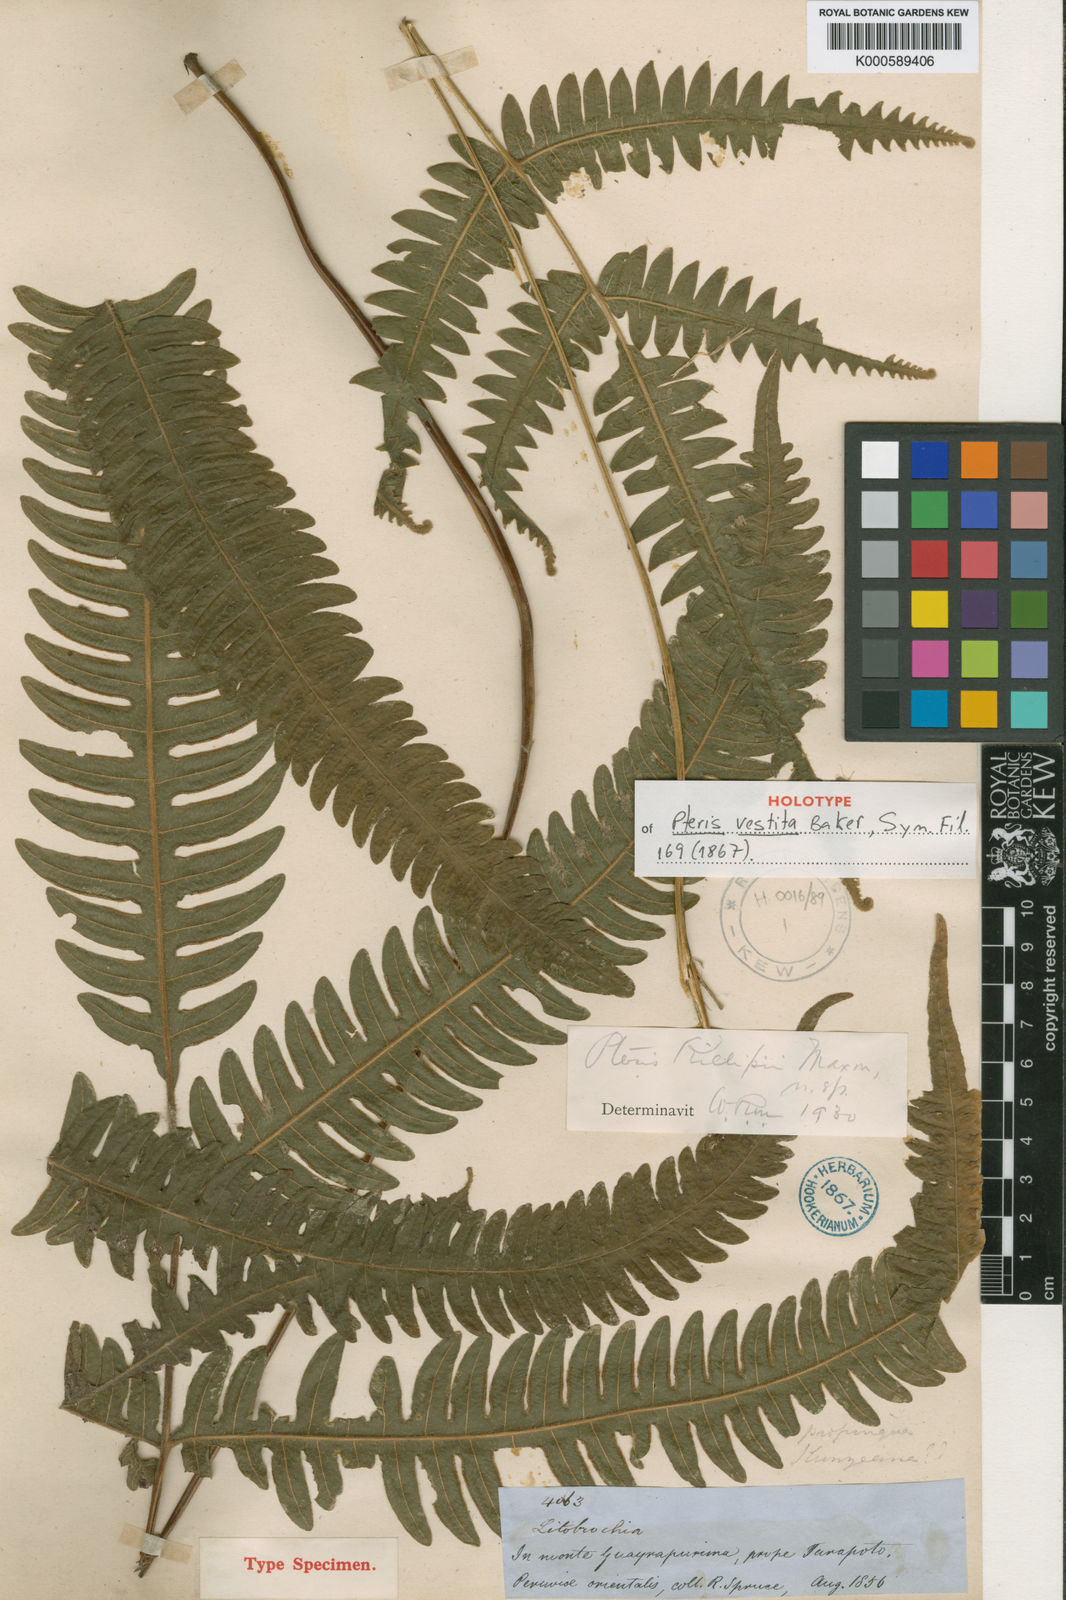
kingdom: Plantae
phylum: Tracheophyta
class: Polypodiopsida
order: Polypodiales
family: Pteridaceae
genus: Pteris
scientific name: Pteris lechleri
